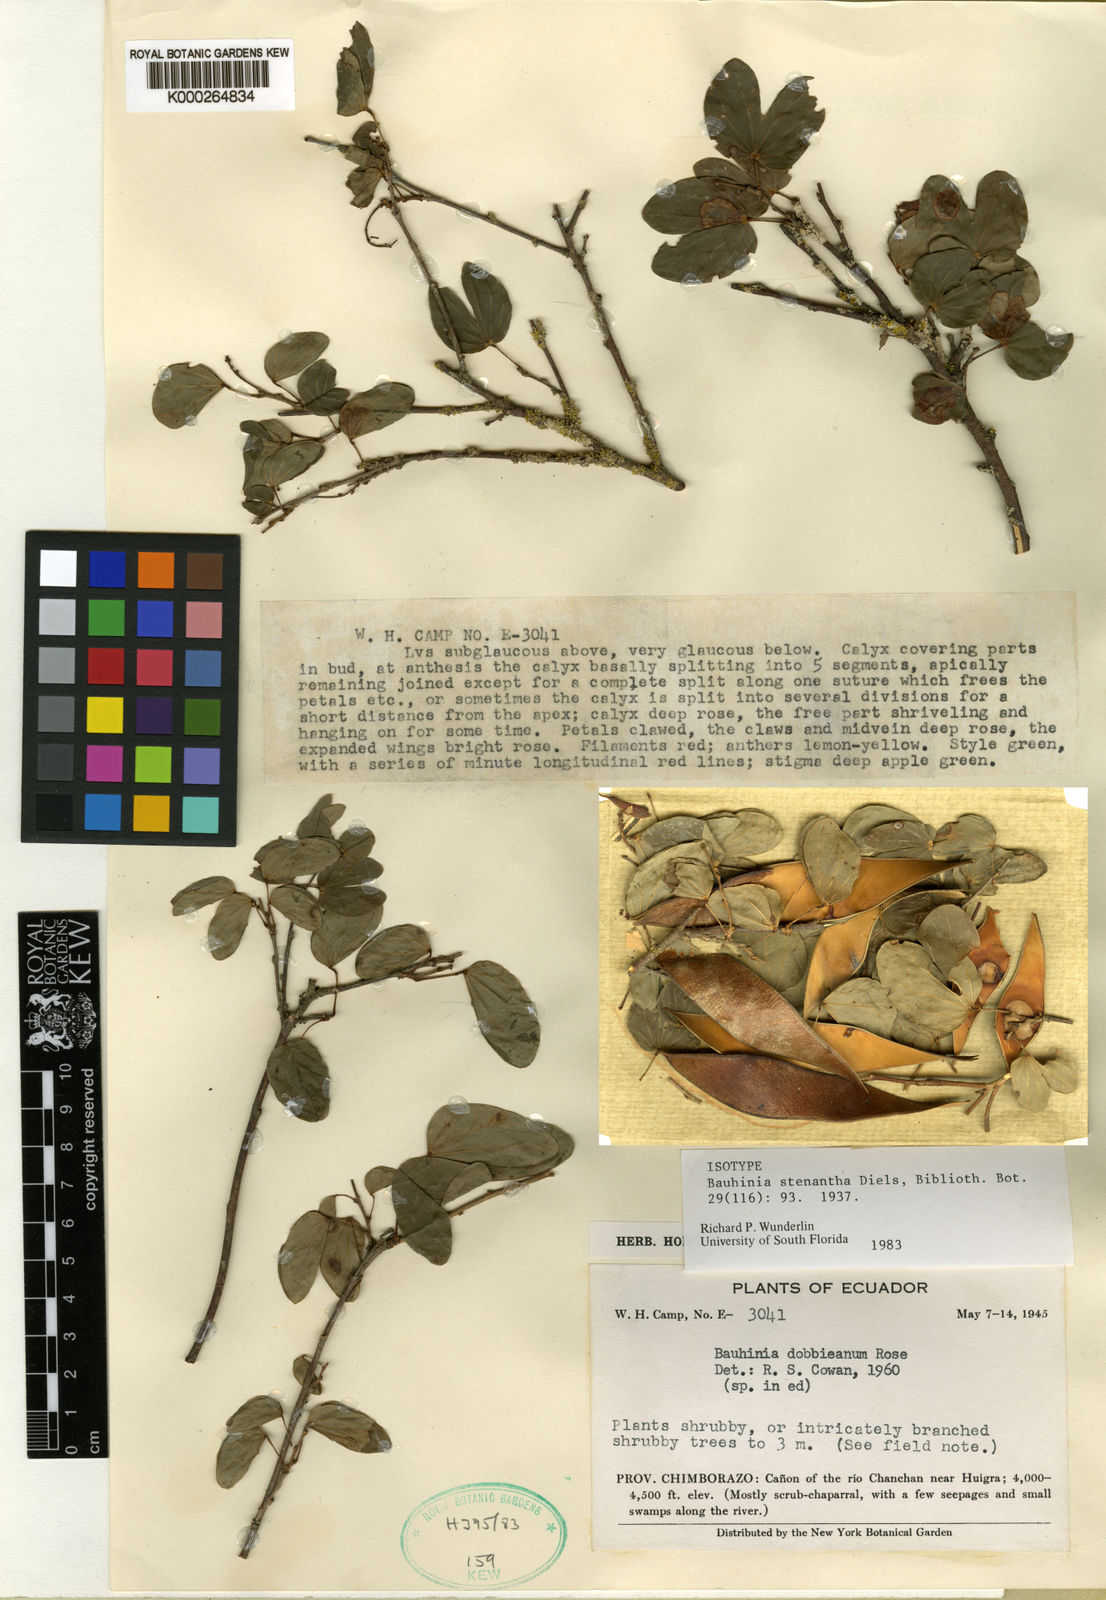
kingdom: Plantae
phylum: Tracheophyta
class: Magnoliopsida
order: Fabales
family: Fabaceae
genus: Bauhinia
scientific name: Bauhinia stenantha
